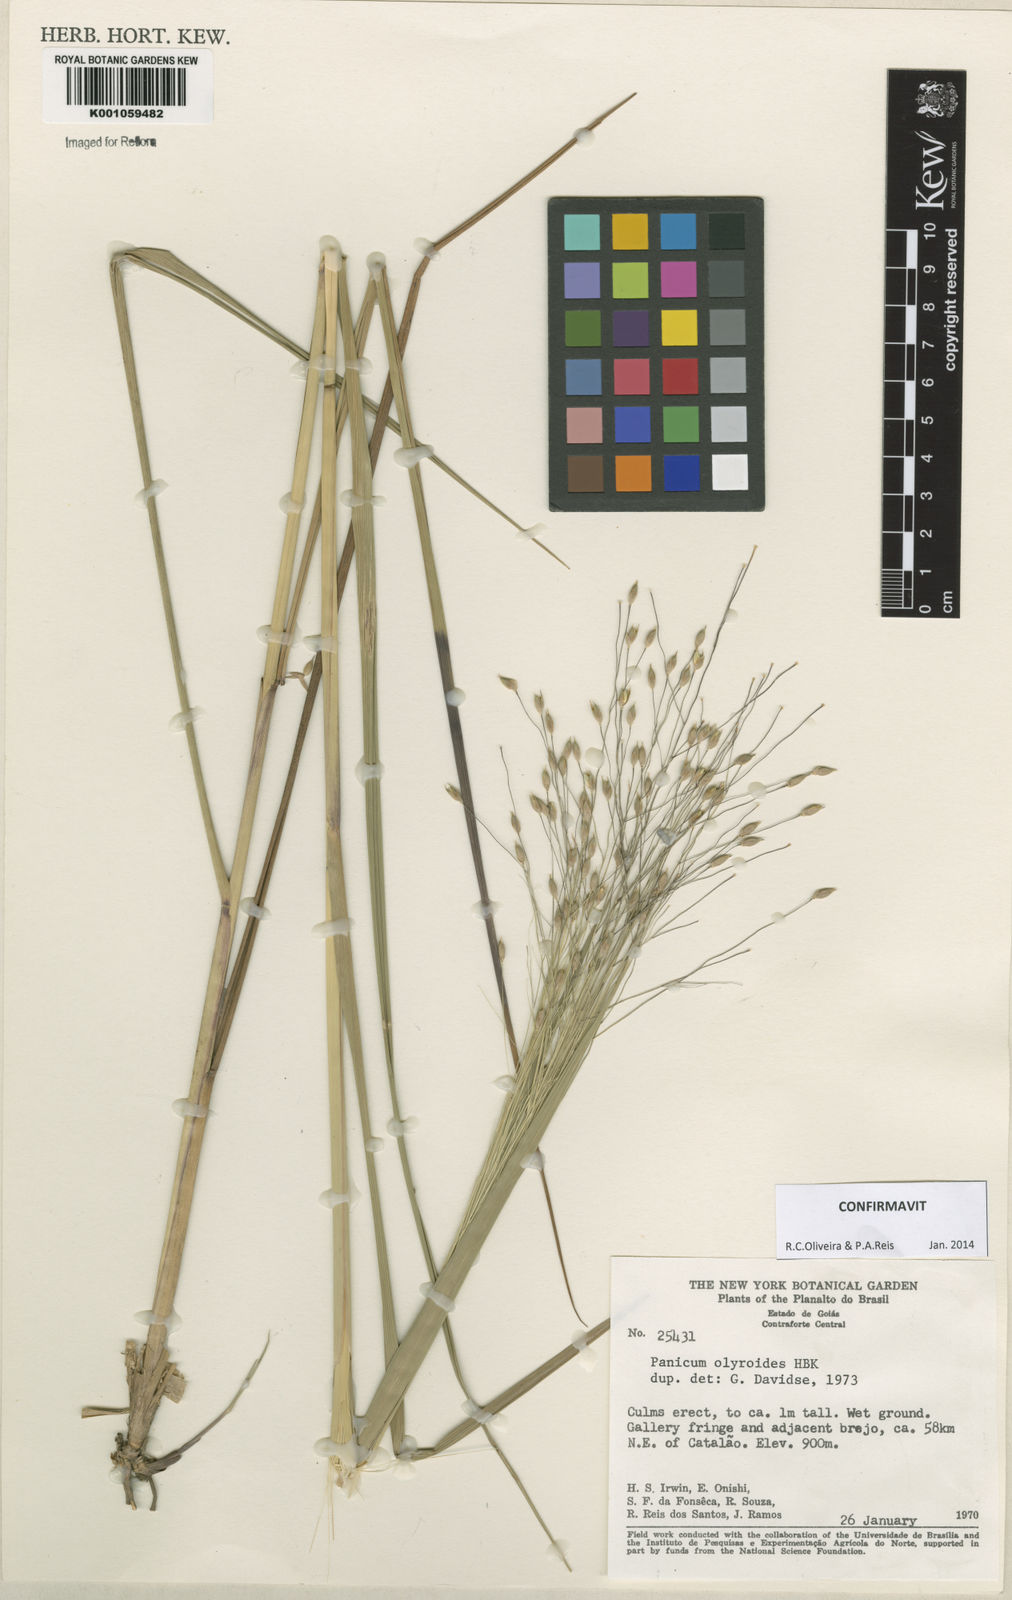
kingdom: Plantae
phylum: Tracheophyta
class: Liliopsida
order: Poales
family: Poaceae
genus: Panicum
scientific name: Panicum olyroides
